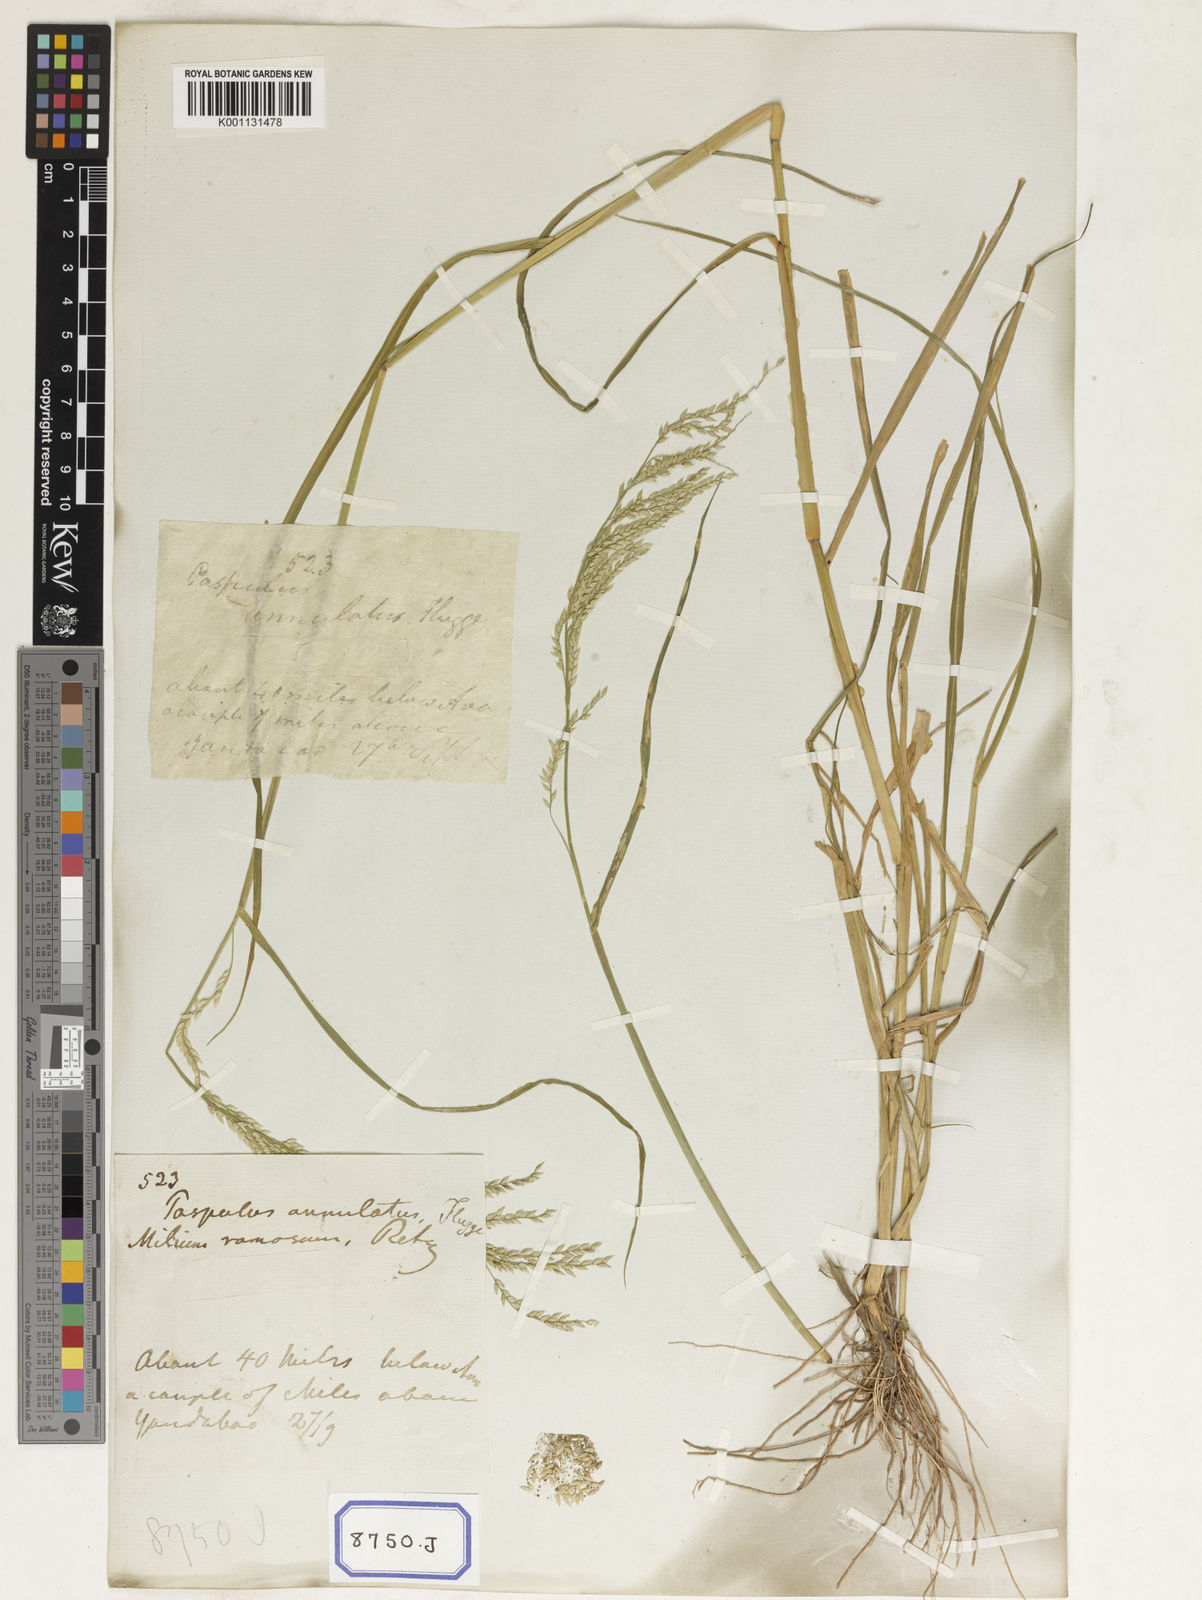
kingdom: Plantae
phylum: Tracheophyta
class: Liliopsida
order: Poales
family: Poaceae
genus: Eriochloa
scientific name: Eriochloa procera
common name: Spring grass
